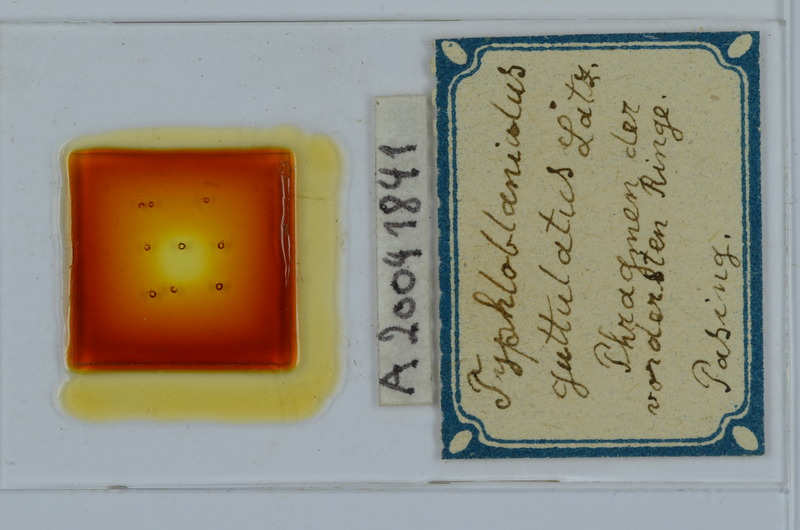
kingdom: Animalia
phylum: Arthropoda
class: Diplopoda
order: Julida
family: Blaniulidae
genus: Blaniulus
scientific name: Blaniulus guttulatus
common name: Spotted snake millipede
